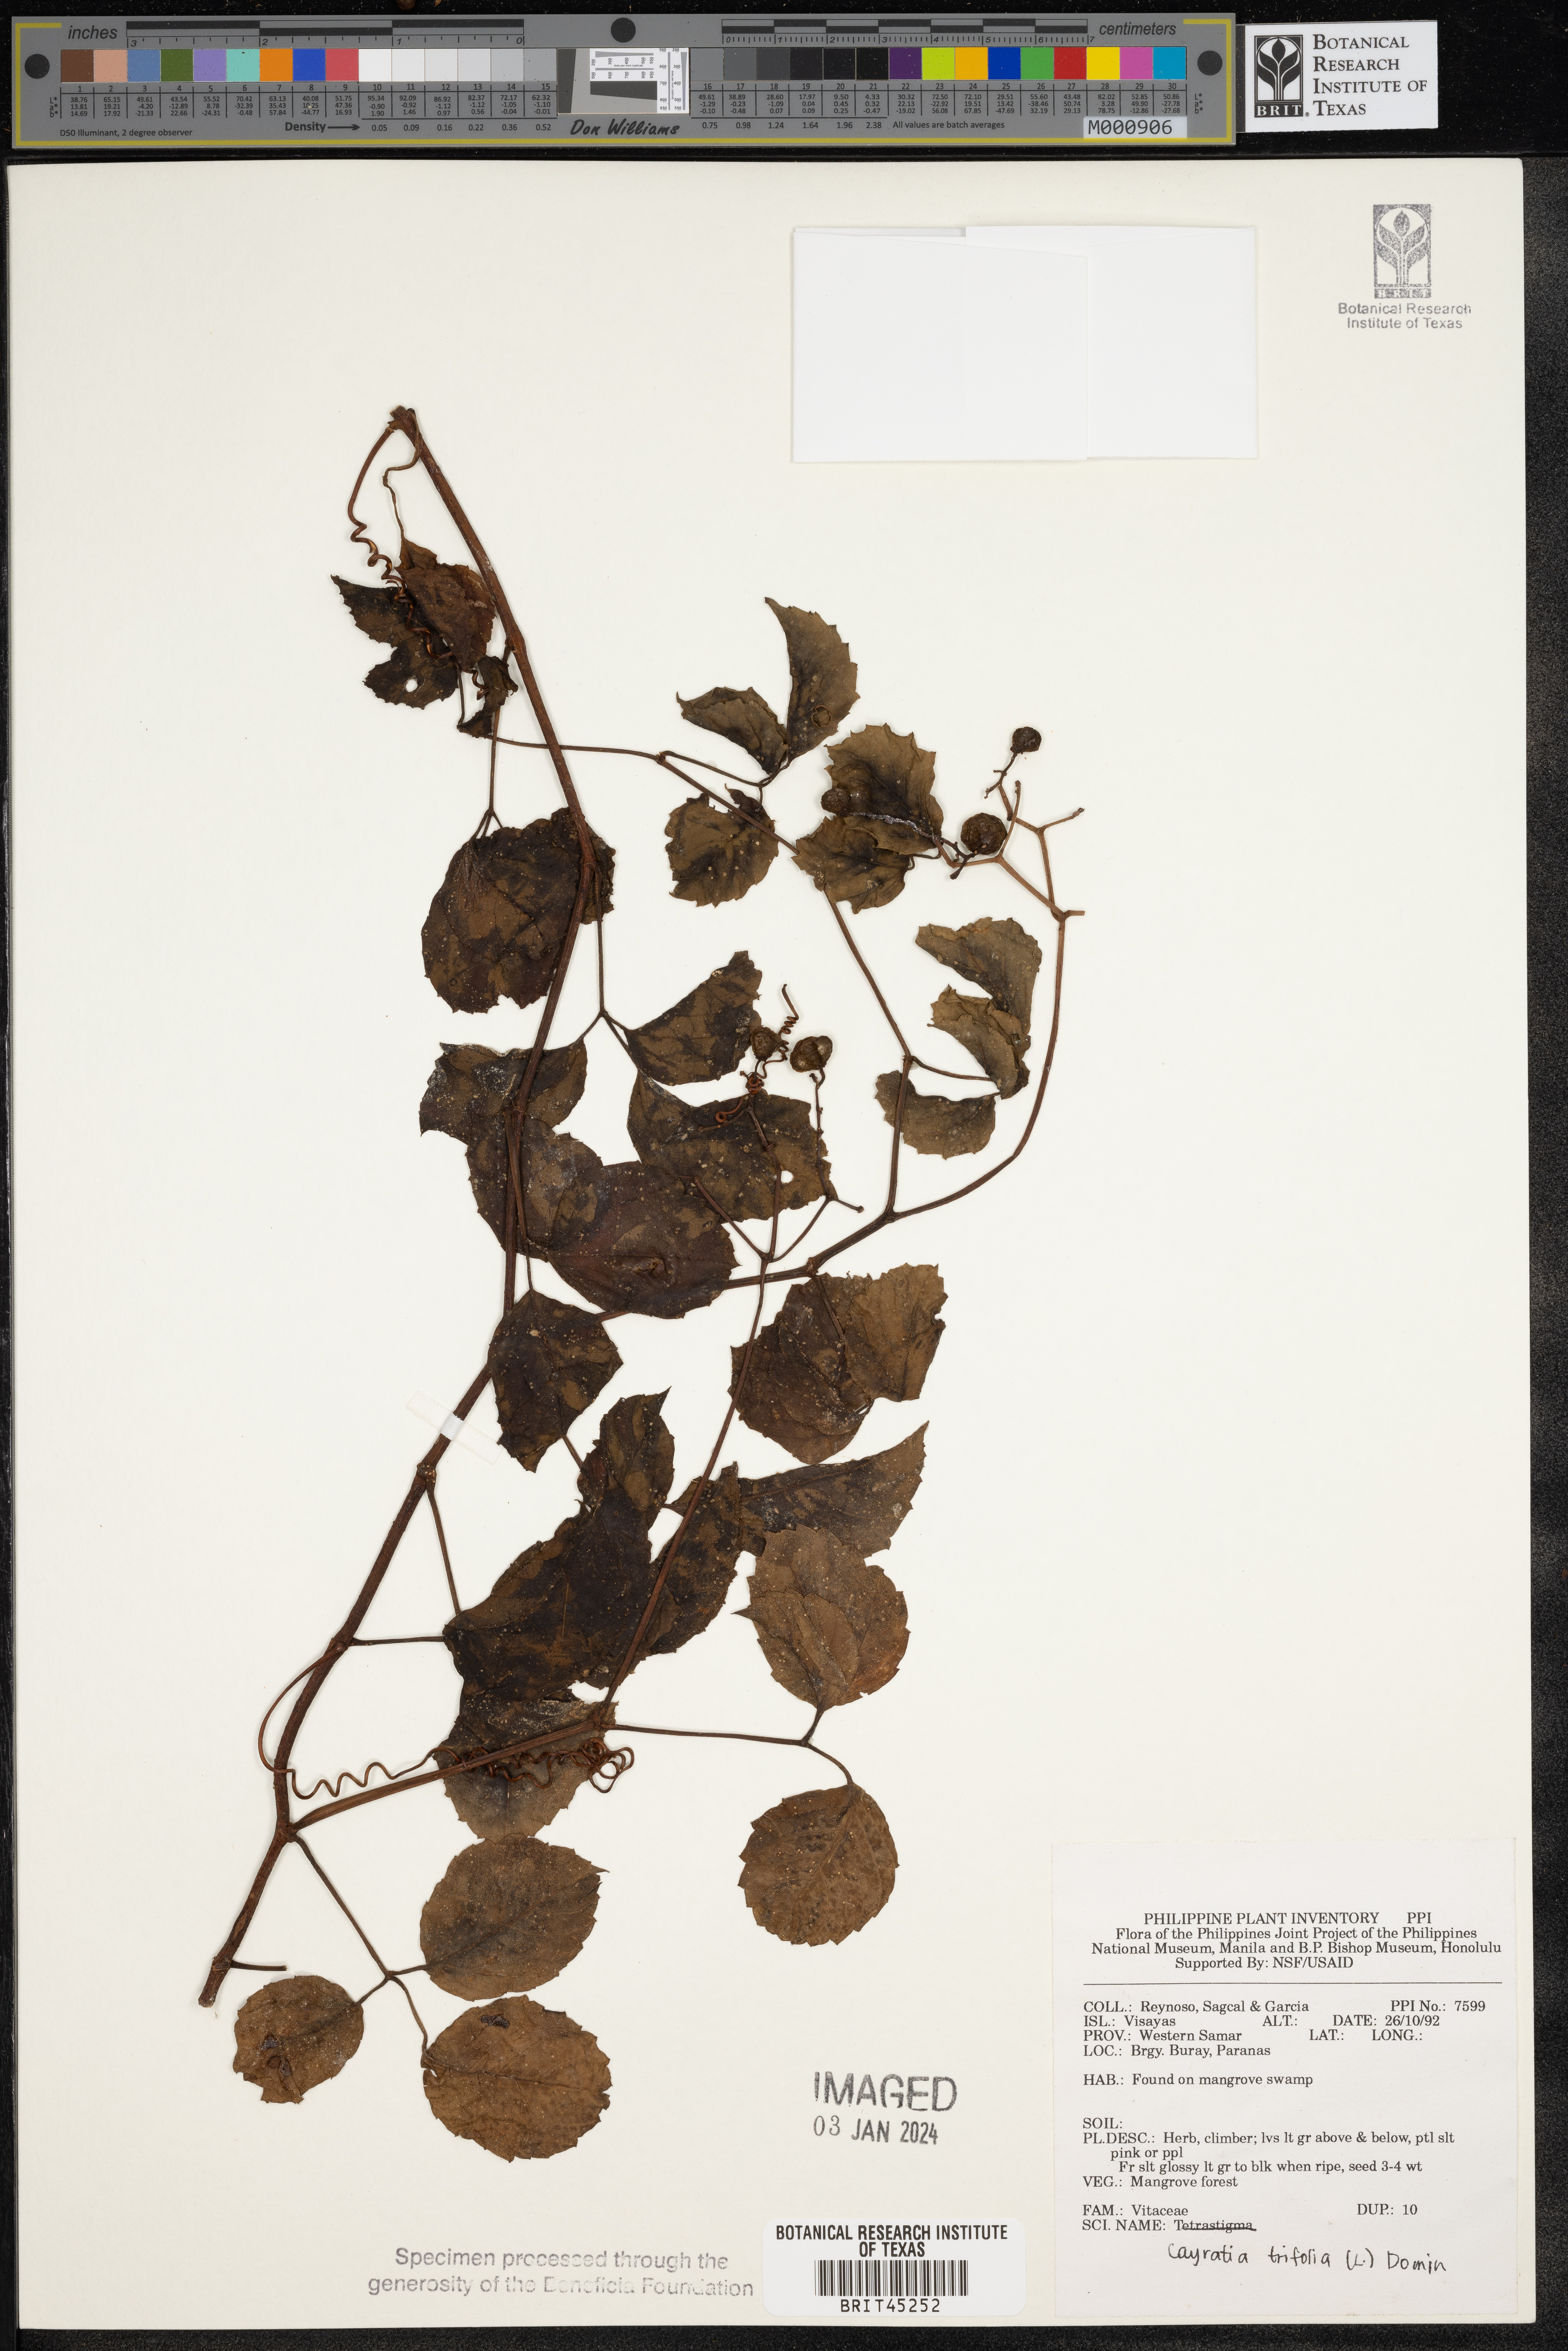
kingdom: Plantae
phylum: Tracheophyta
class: Magnoliopsida
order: Vitales
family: Vitaceae
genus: Causonis
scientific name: Causonis trifolia
